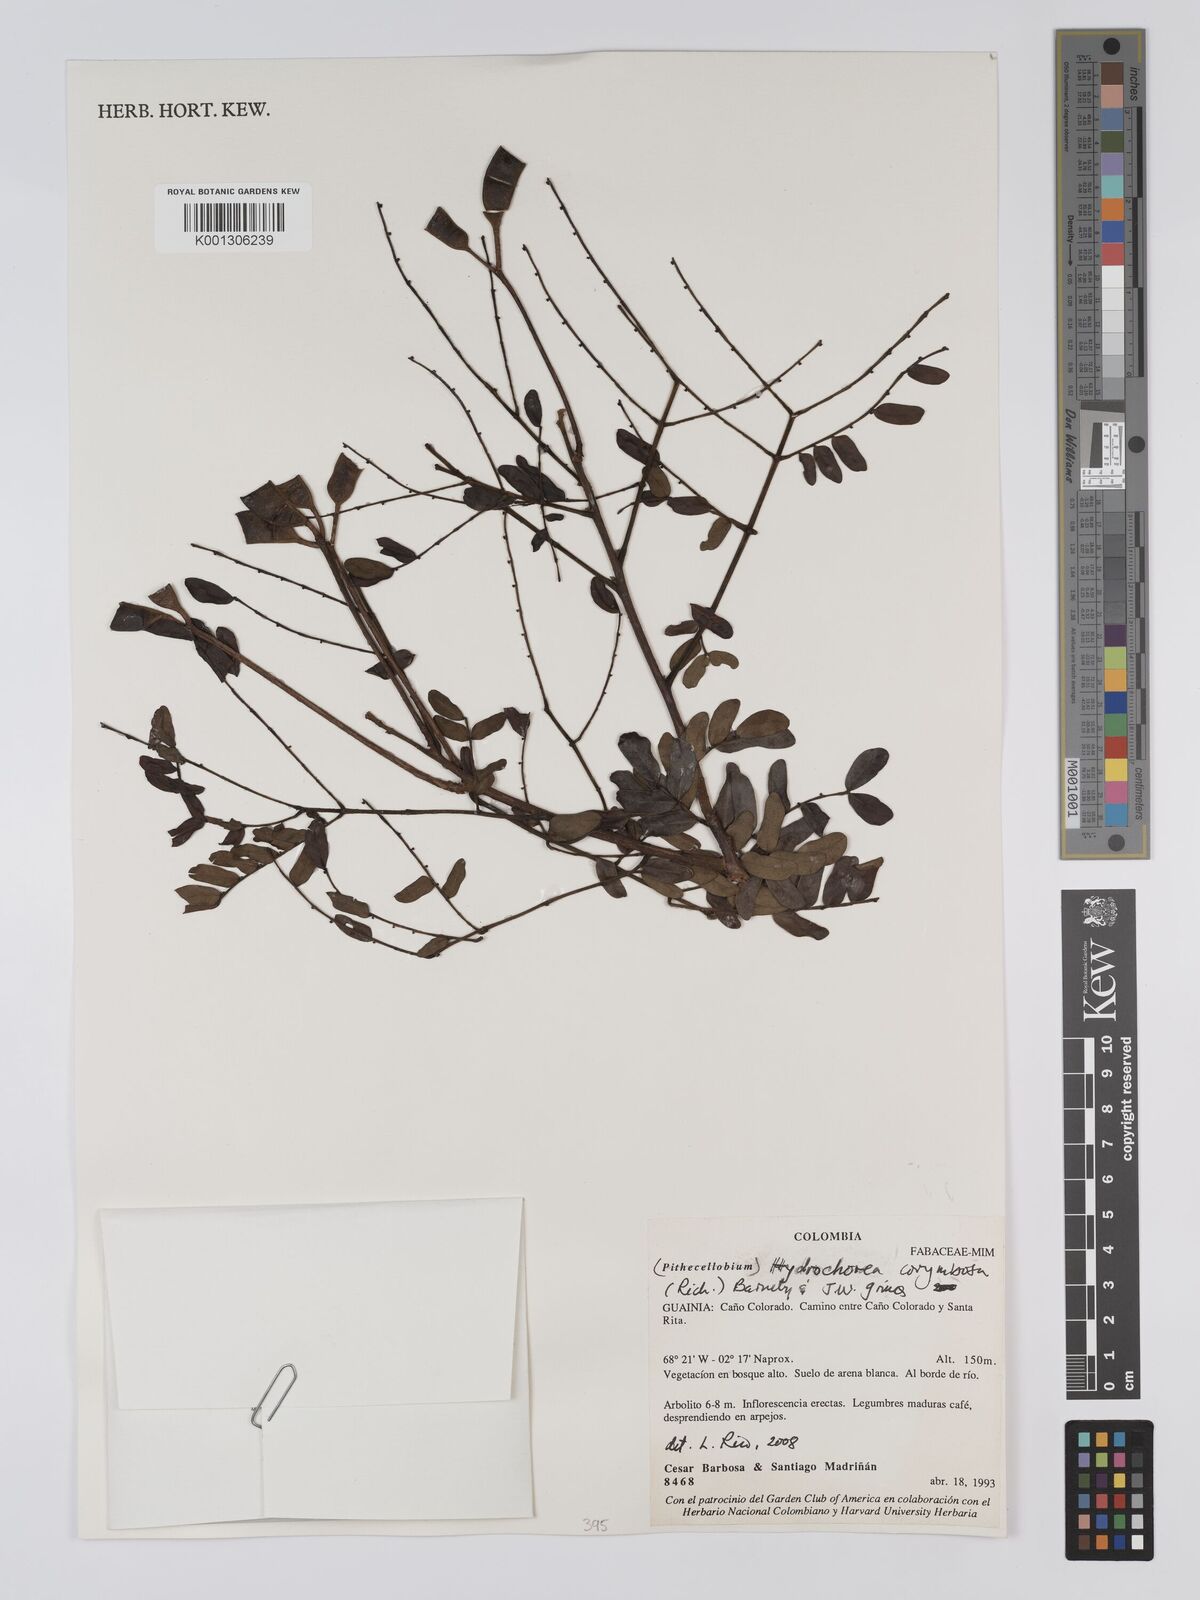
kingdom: Plantae
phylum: Tracheophyta
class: Magnoliopsida
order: Fabales
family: Fabaceae
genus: Hydrochorea
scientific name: Hydrochorea corymbosa
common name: Swamp manariballi
